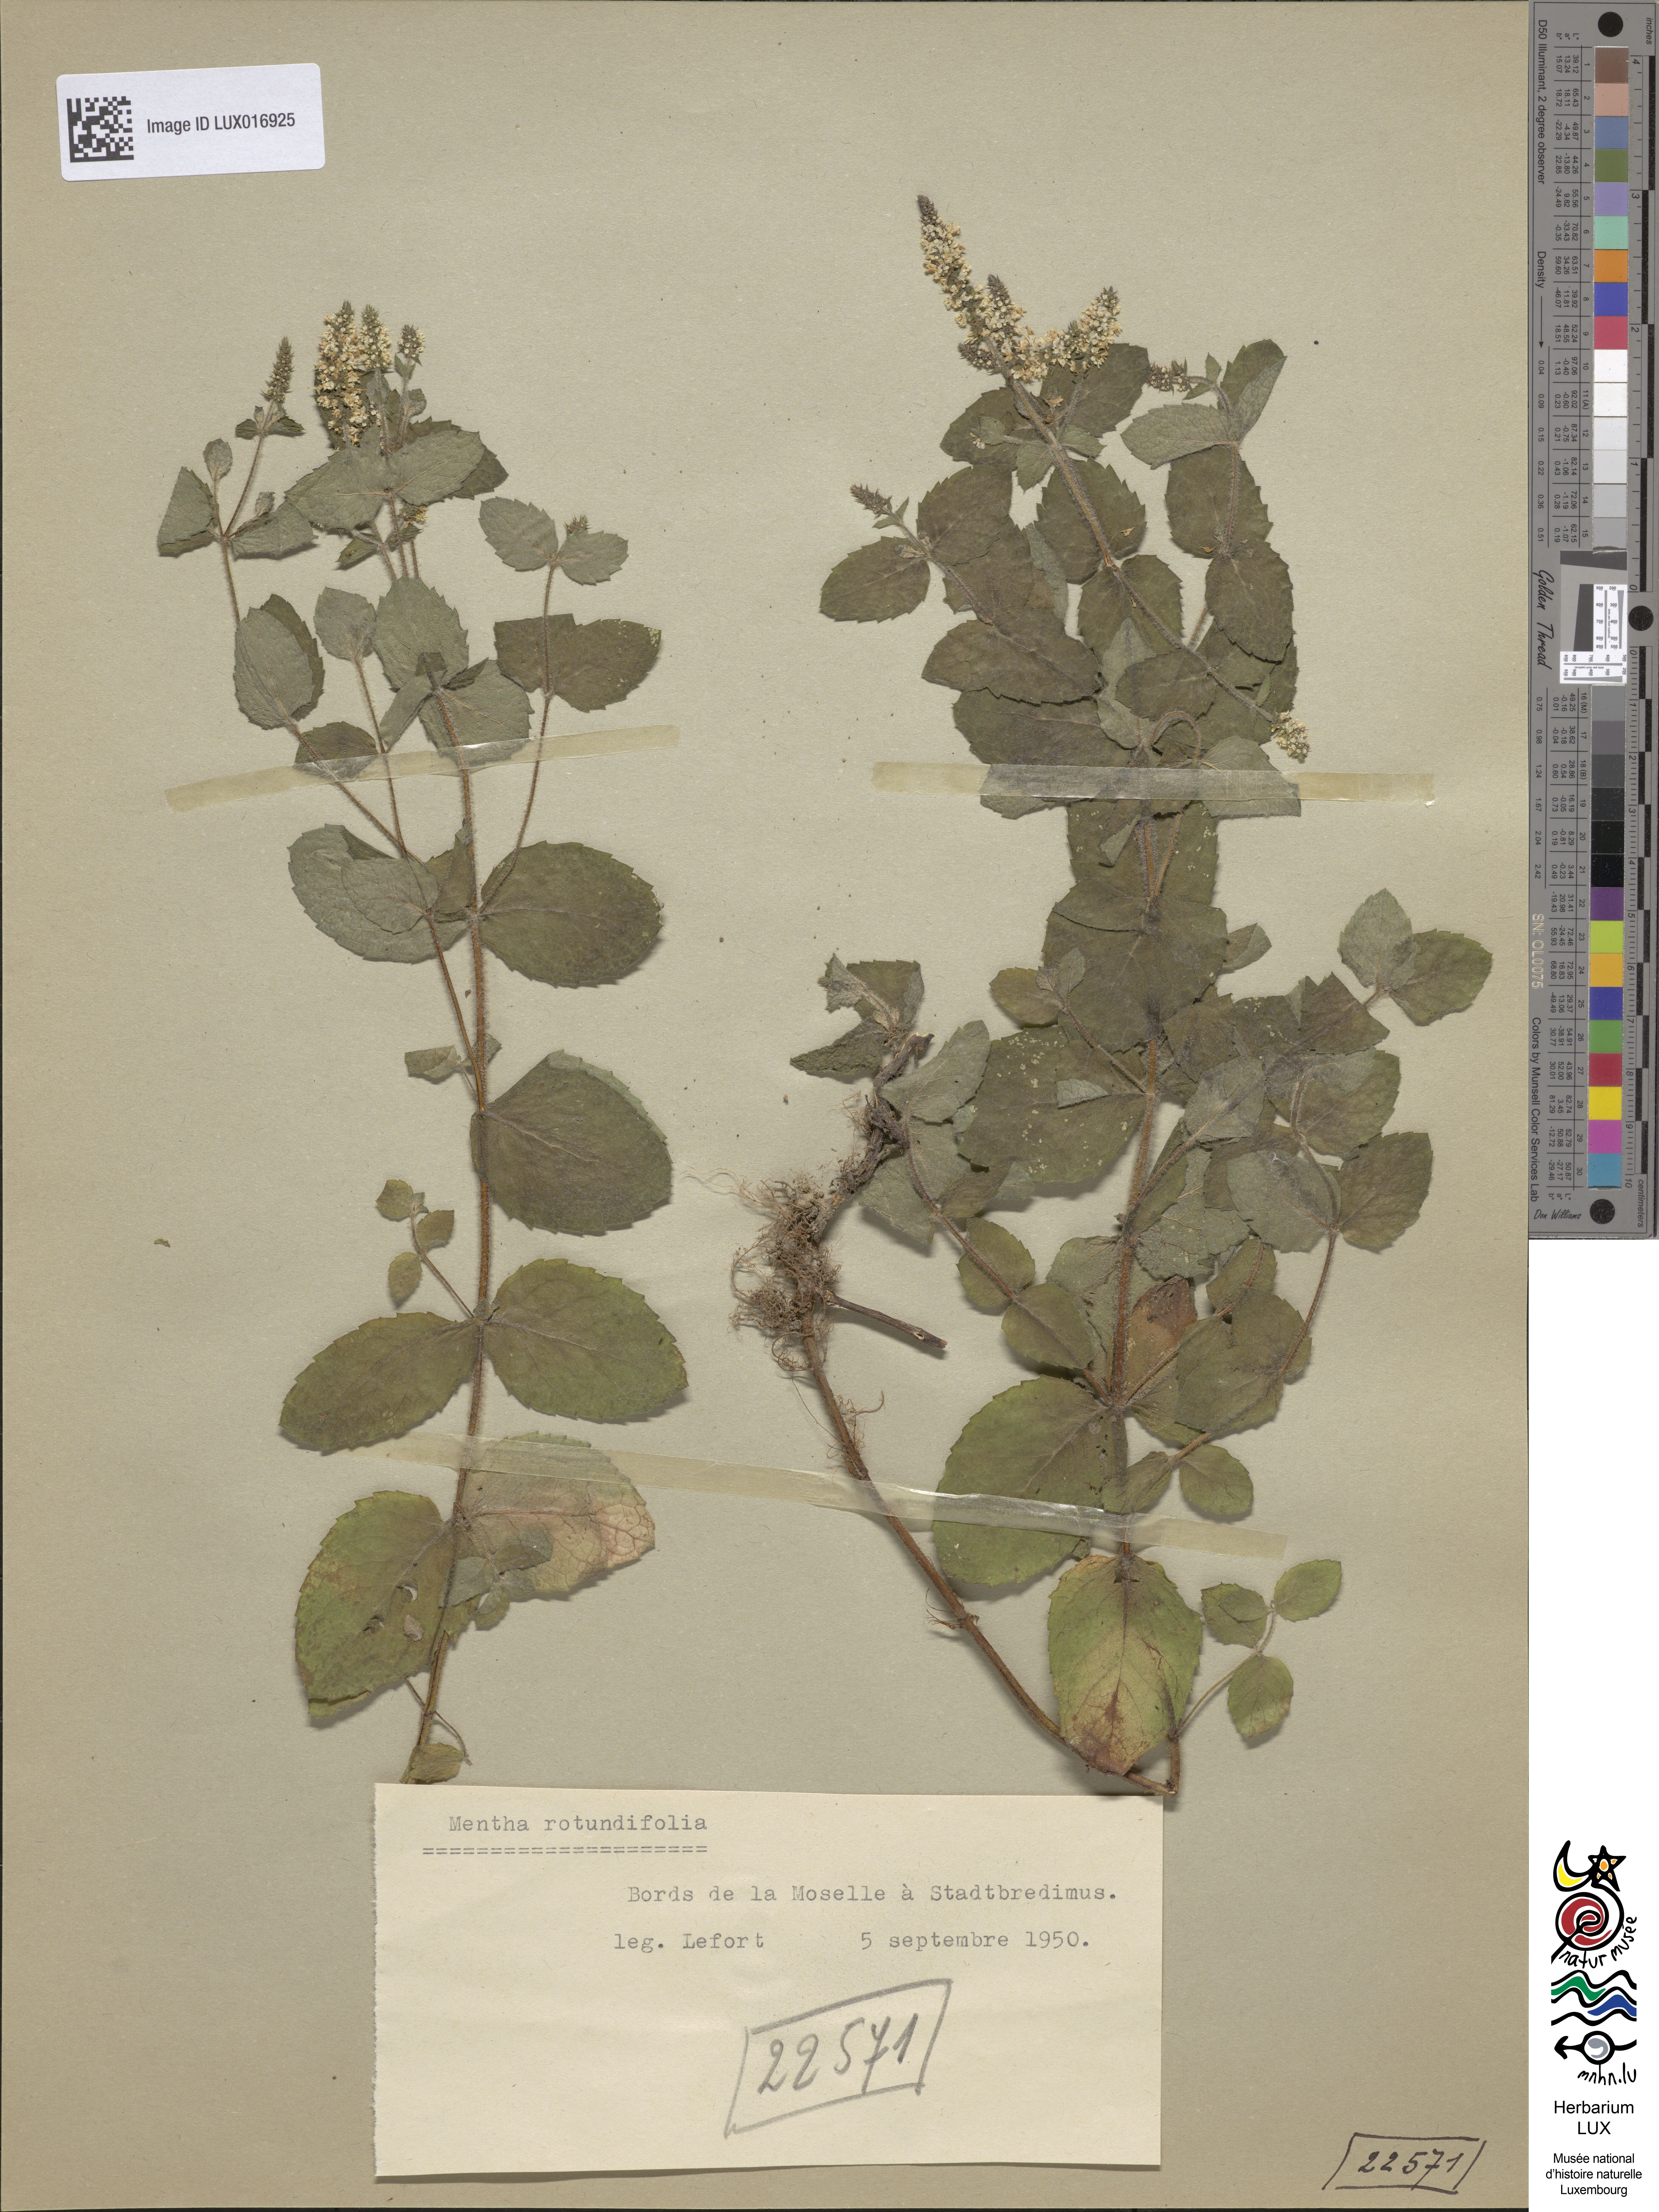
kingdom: Plantae
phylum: Tracheophyta
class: Magnoliopsida
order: Lamiales
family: Lamiaceae
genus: Mentha
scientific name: Mentha suaveolens
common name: Apple mint
